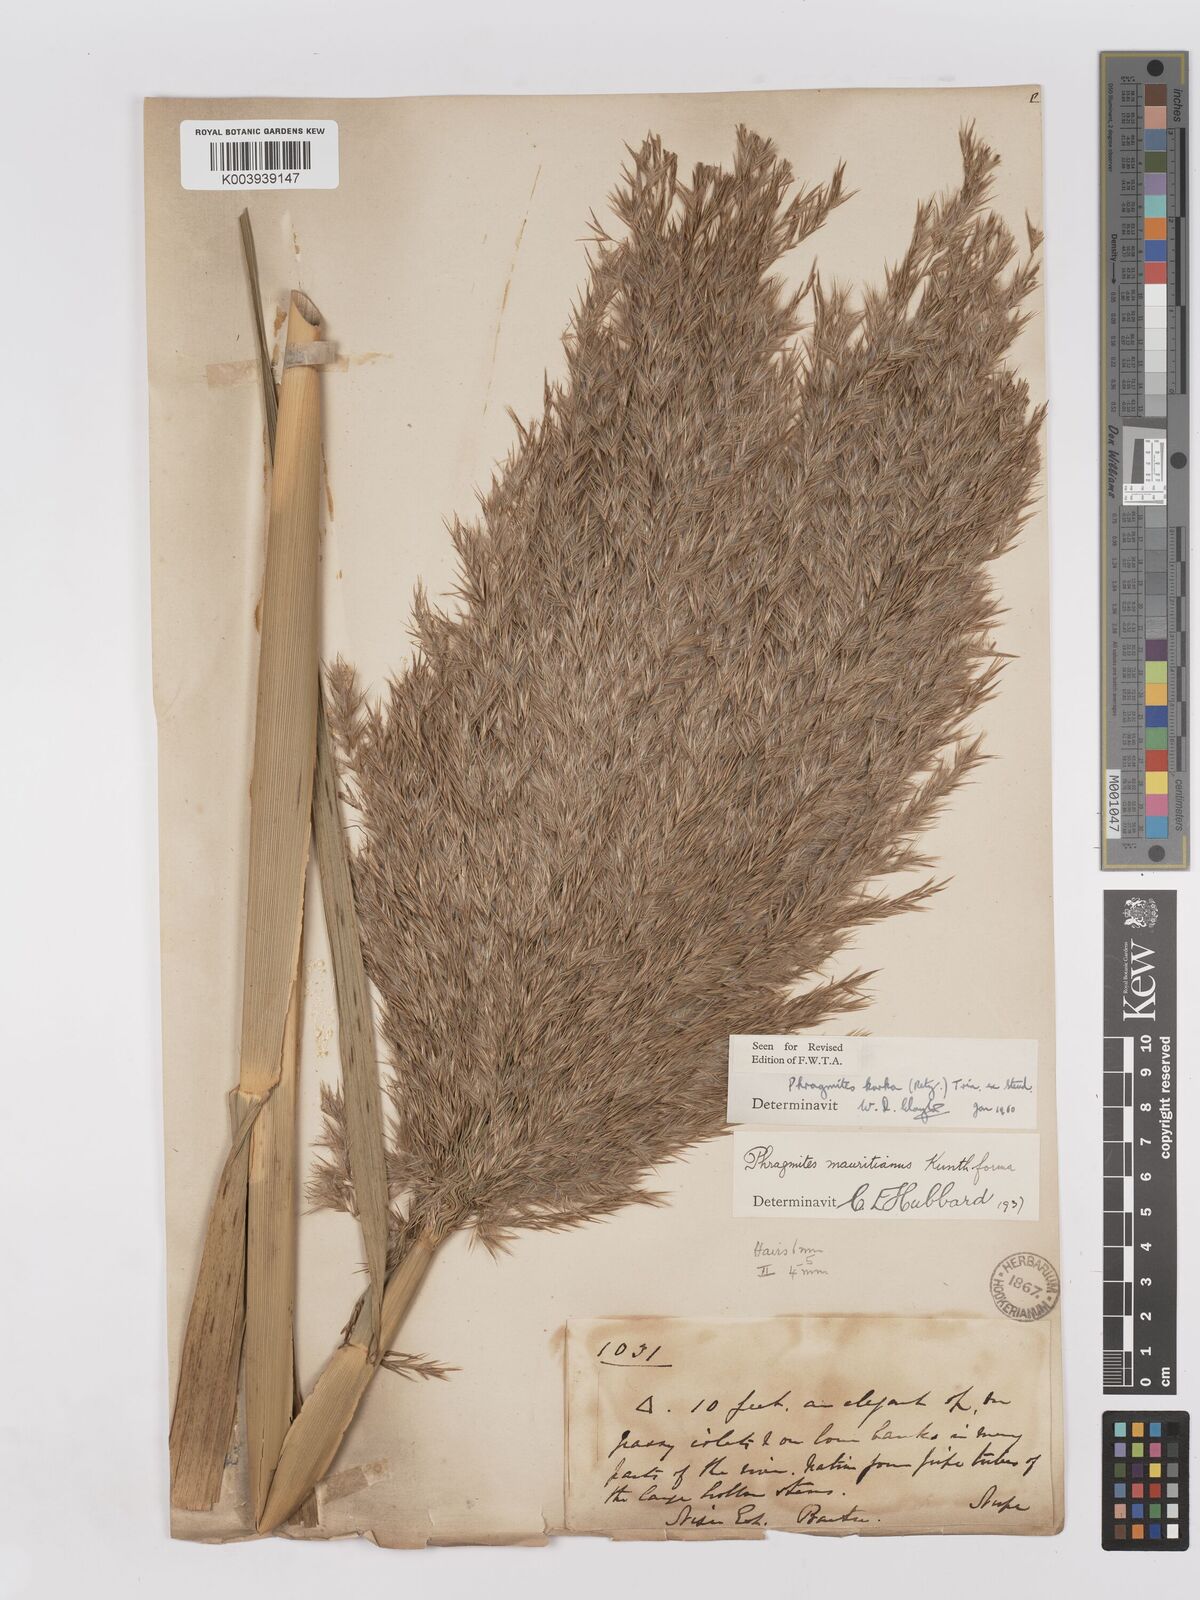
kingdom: Plantae
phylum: Tracheophyta
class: Liliopsida
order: Poales
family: Poaceae
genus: Phragmites
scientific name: Phragmites karka
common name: Tropical reed
